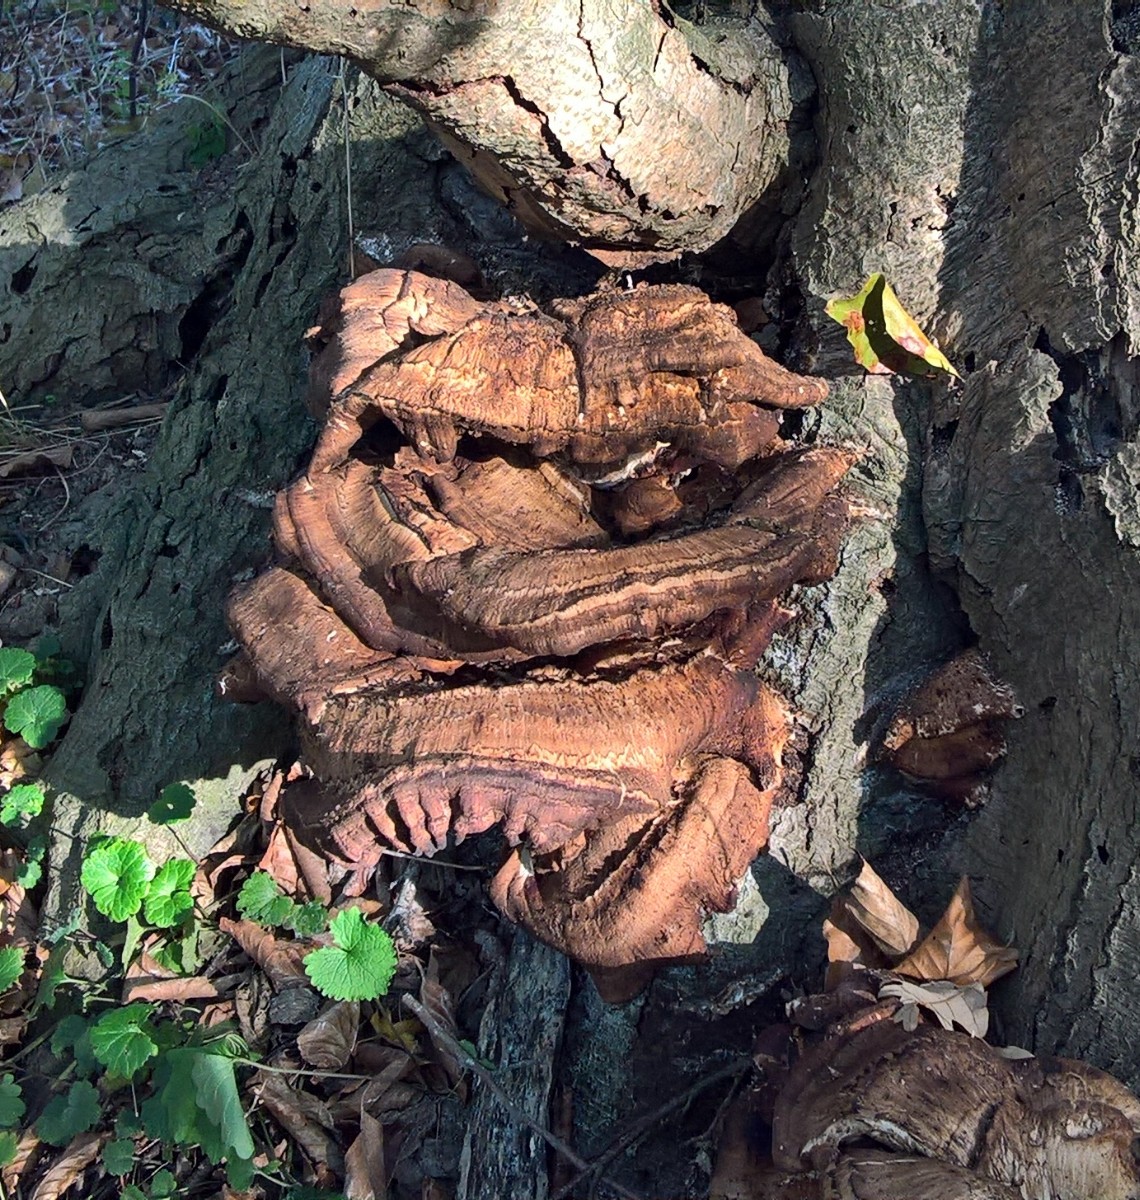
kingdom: Fungi
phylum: Basidiomycota
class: Agaricomycetes
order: Polyporales
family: Meripilaceae
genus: Meripilus
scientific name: Meripilus giganteus
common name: kæmpeporesvamp
